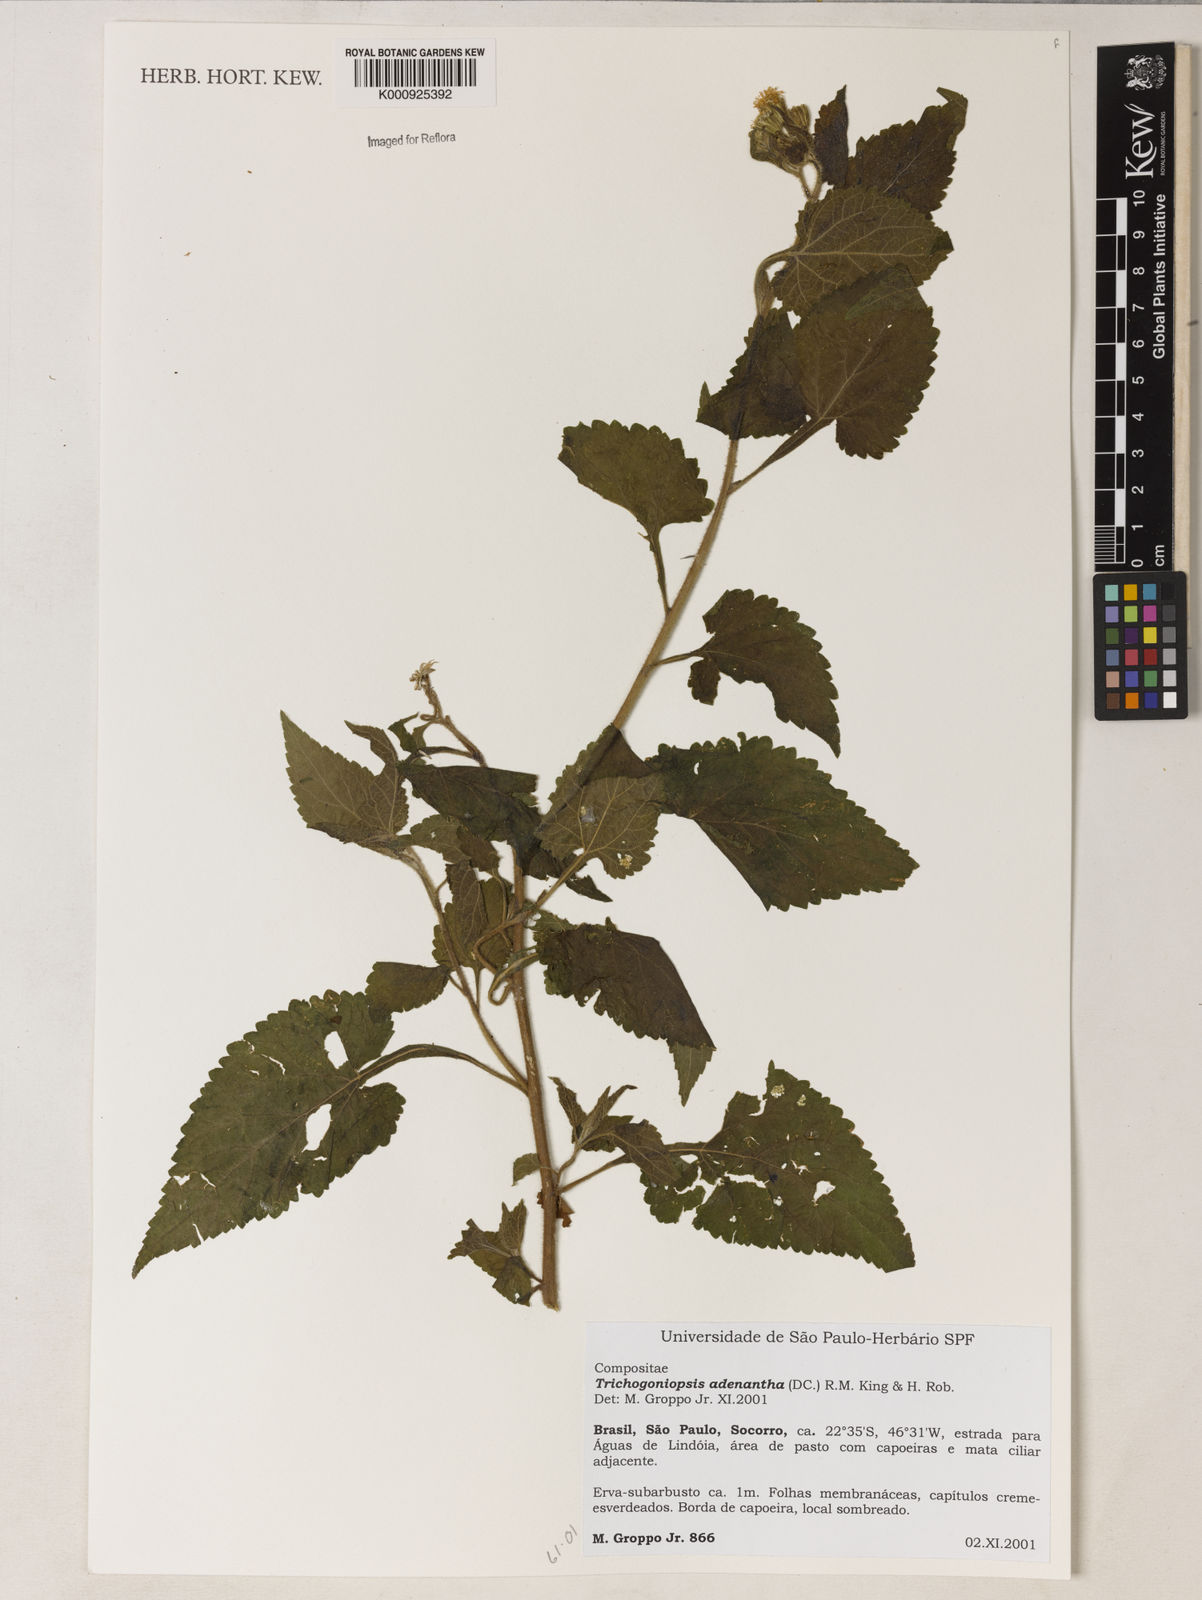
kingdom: Plantae
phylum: Tracheophyta
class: Magnoliopsida
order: Asterales
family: Asteraceae
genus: Trichogoniopsis
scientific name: Trichogoniopsis adenantha
